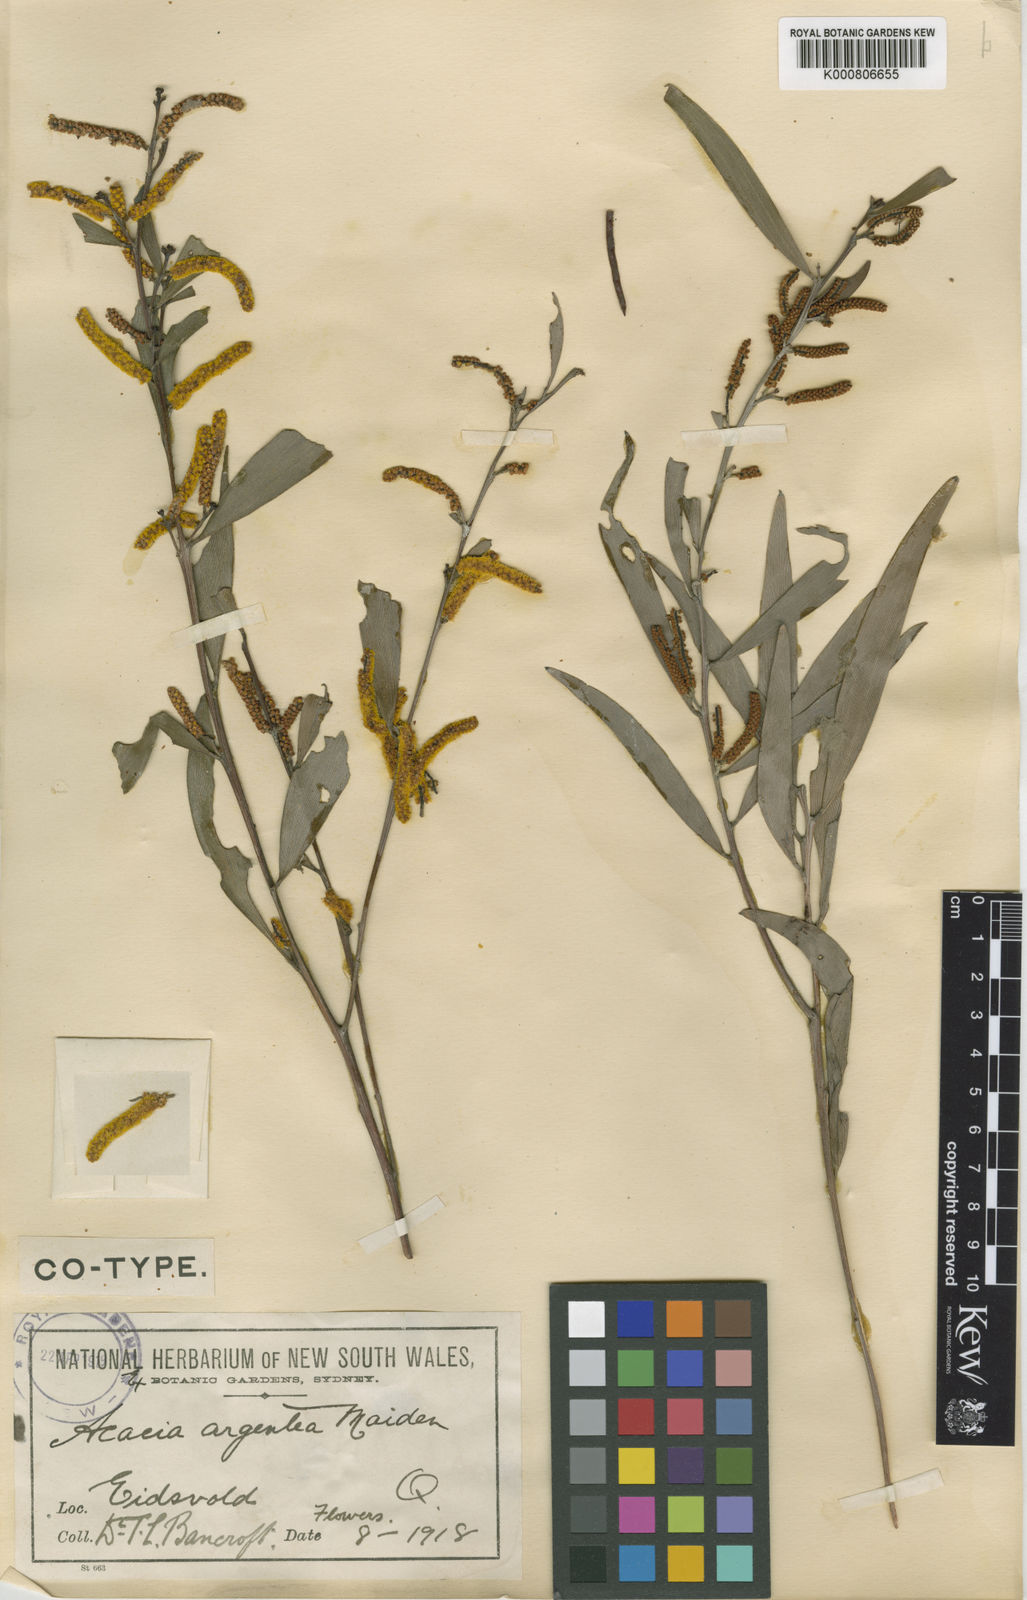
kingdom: Plantae
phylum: Tracheophyta
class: Magnoliopsida
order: Fabales
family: Fabaceae
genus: Acacia
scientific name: Acacia leptostachya
